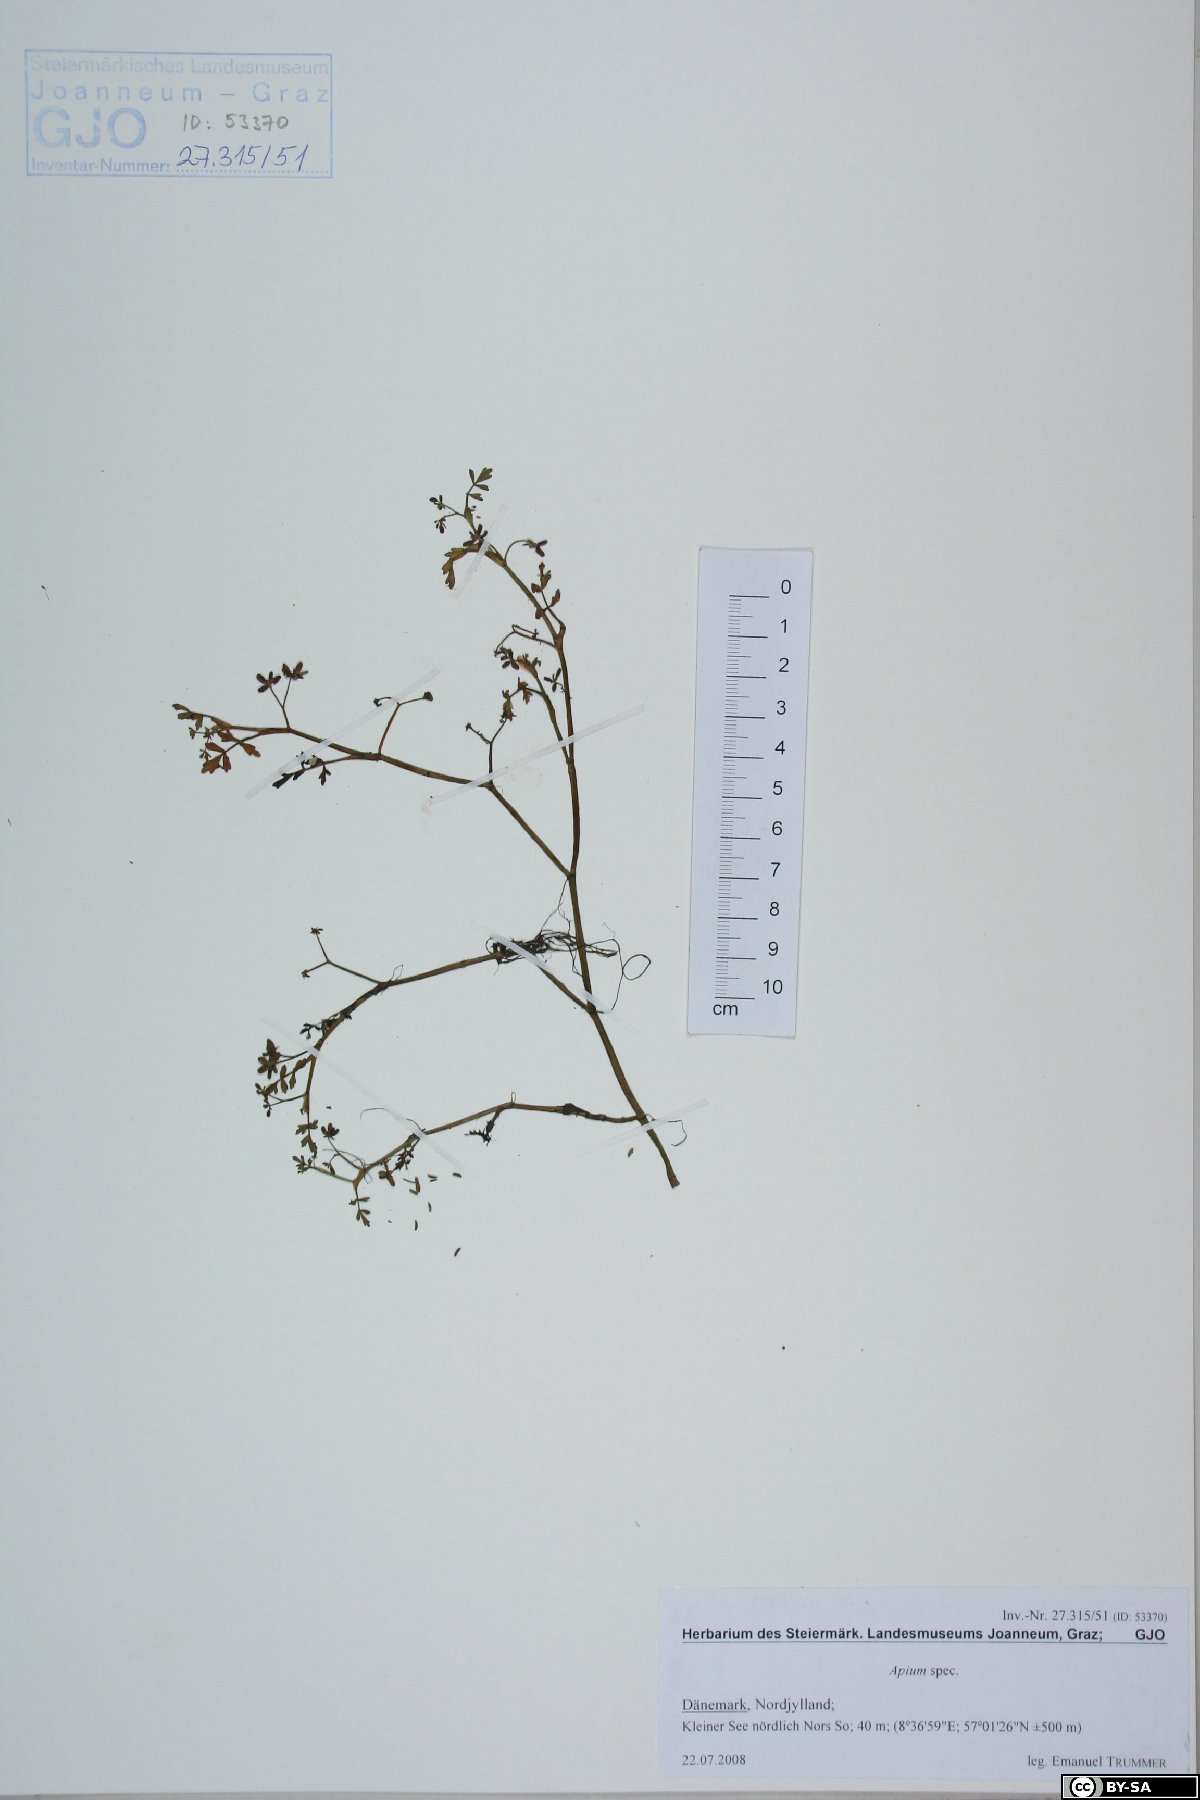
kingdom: Plantae
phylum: Tracheophyta
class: Magnoliopsida
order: Apiales
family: Apiaceae
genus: Apium
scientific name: Apium
